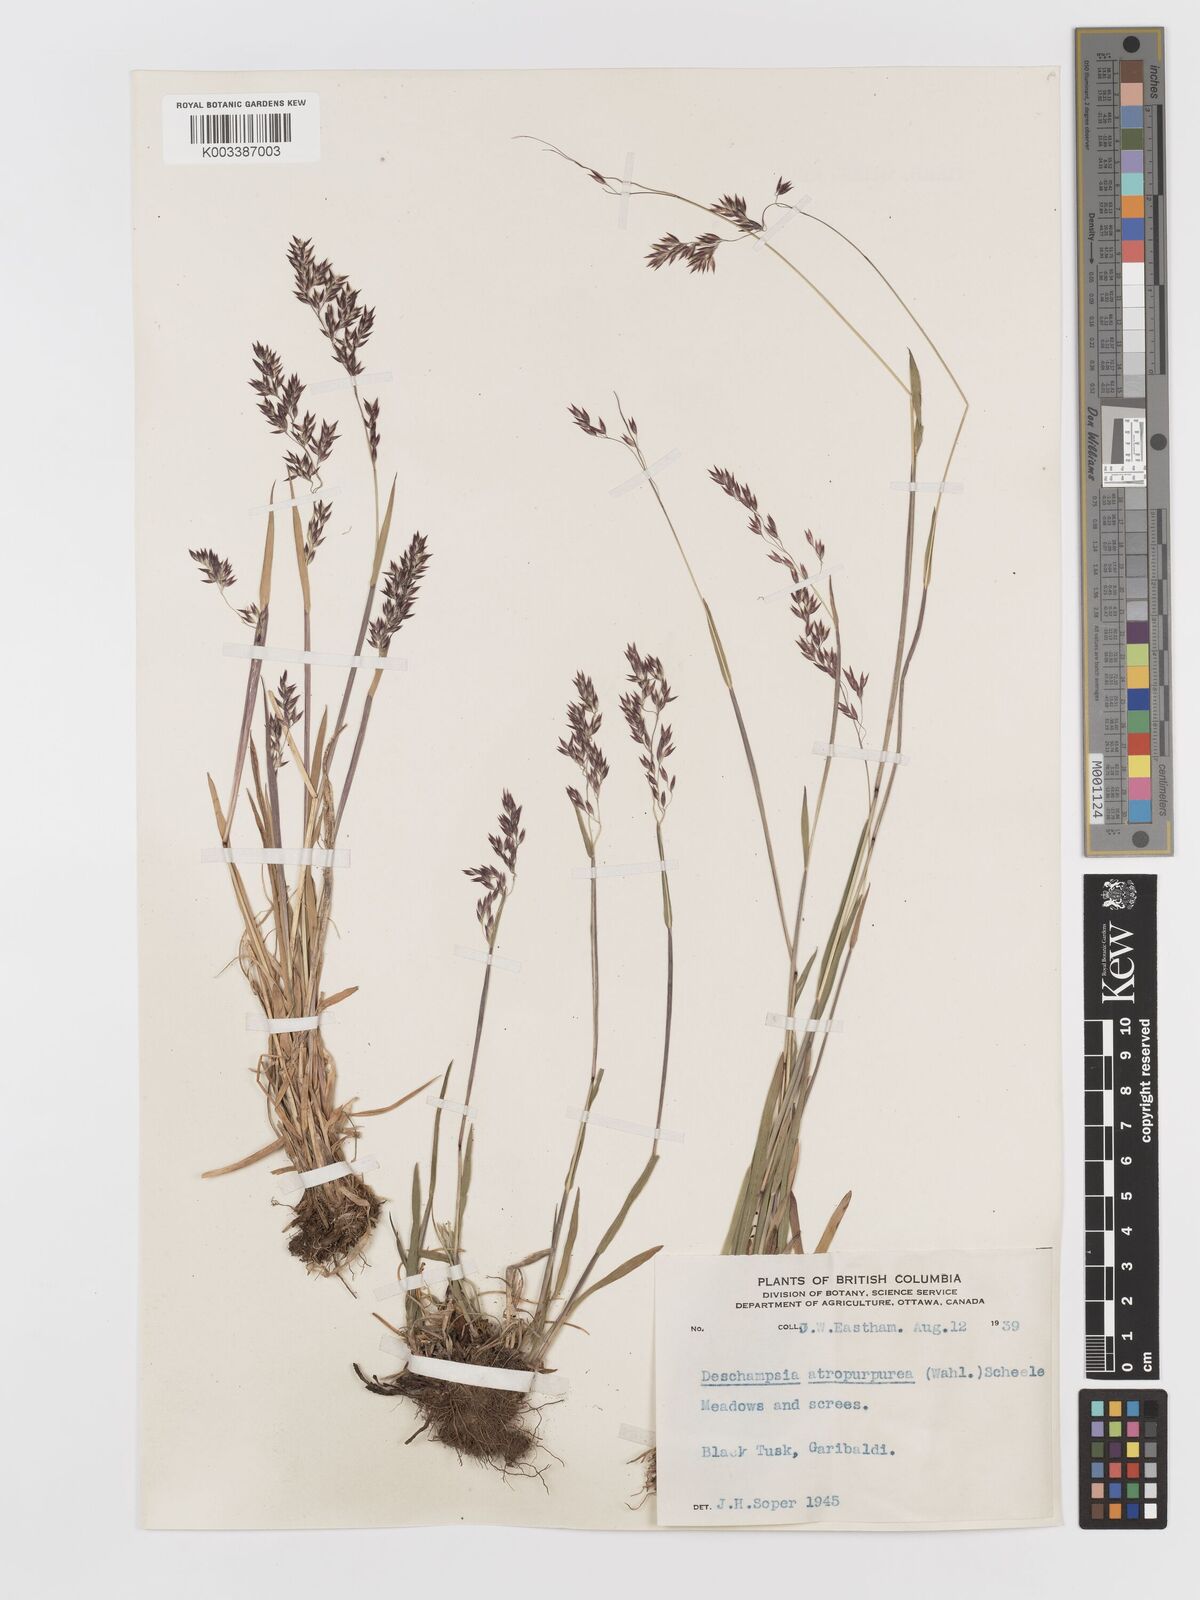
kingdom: Plantae
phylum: Tracheophyta
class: Liliopsida
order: Poales
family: Poaceae
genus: Vahlodea
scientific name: Vahlodea atropurpurea
